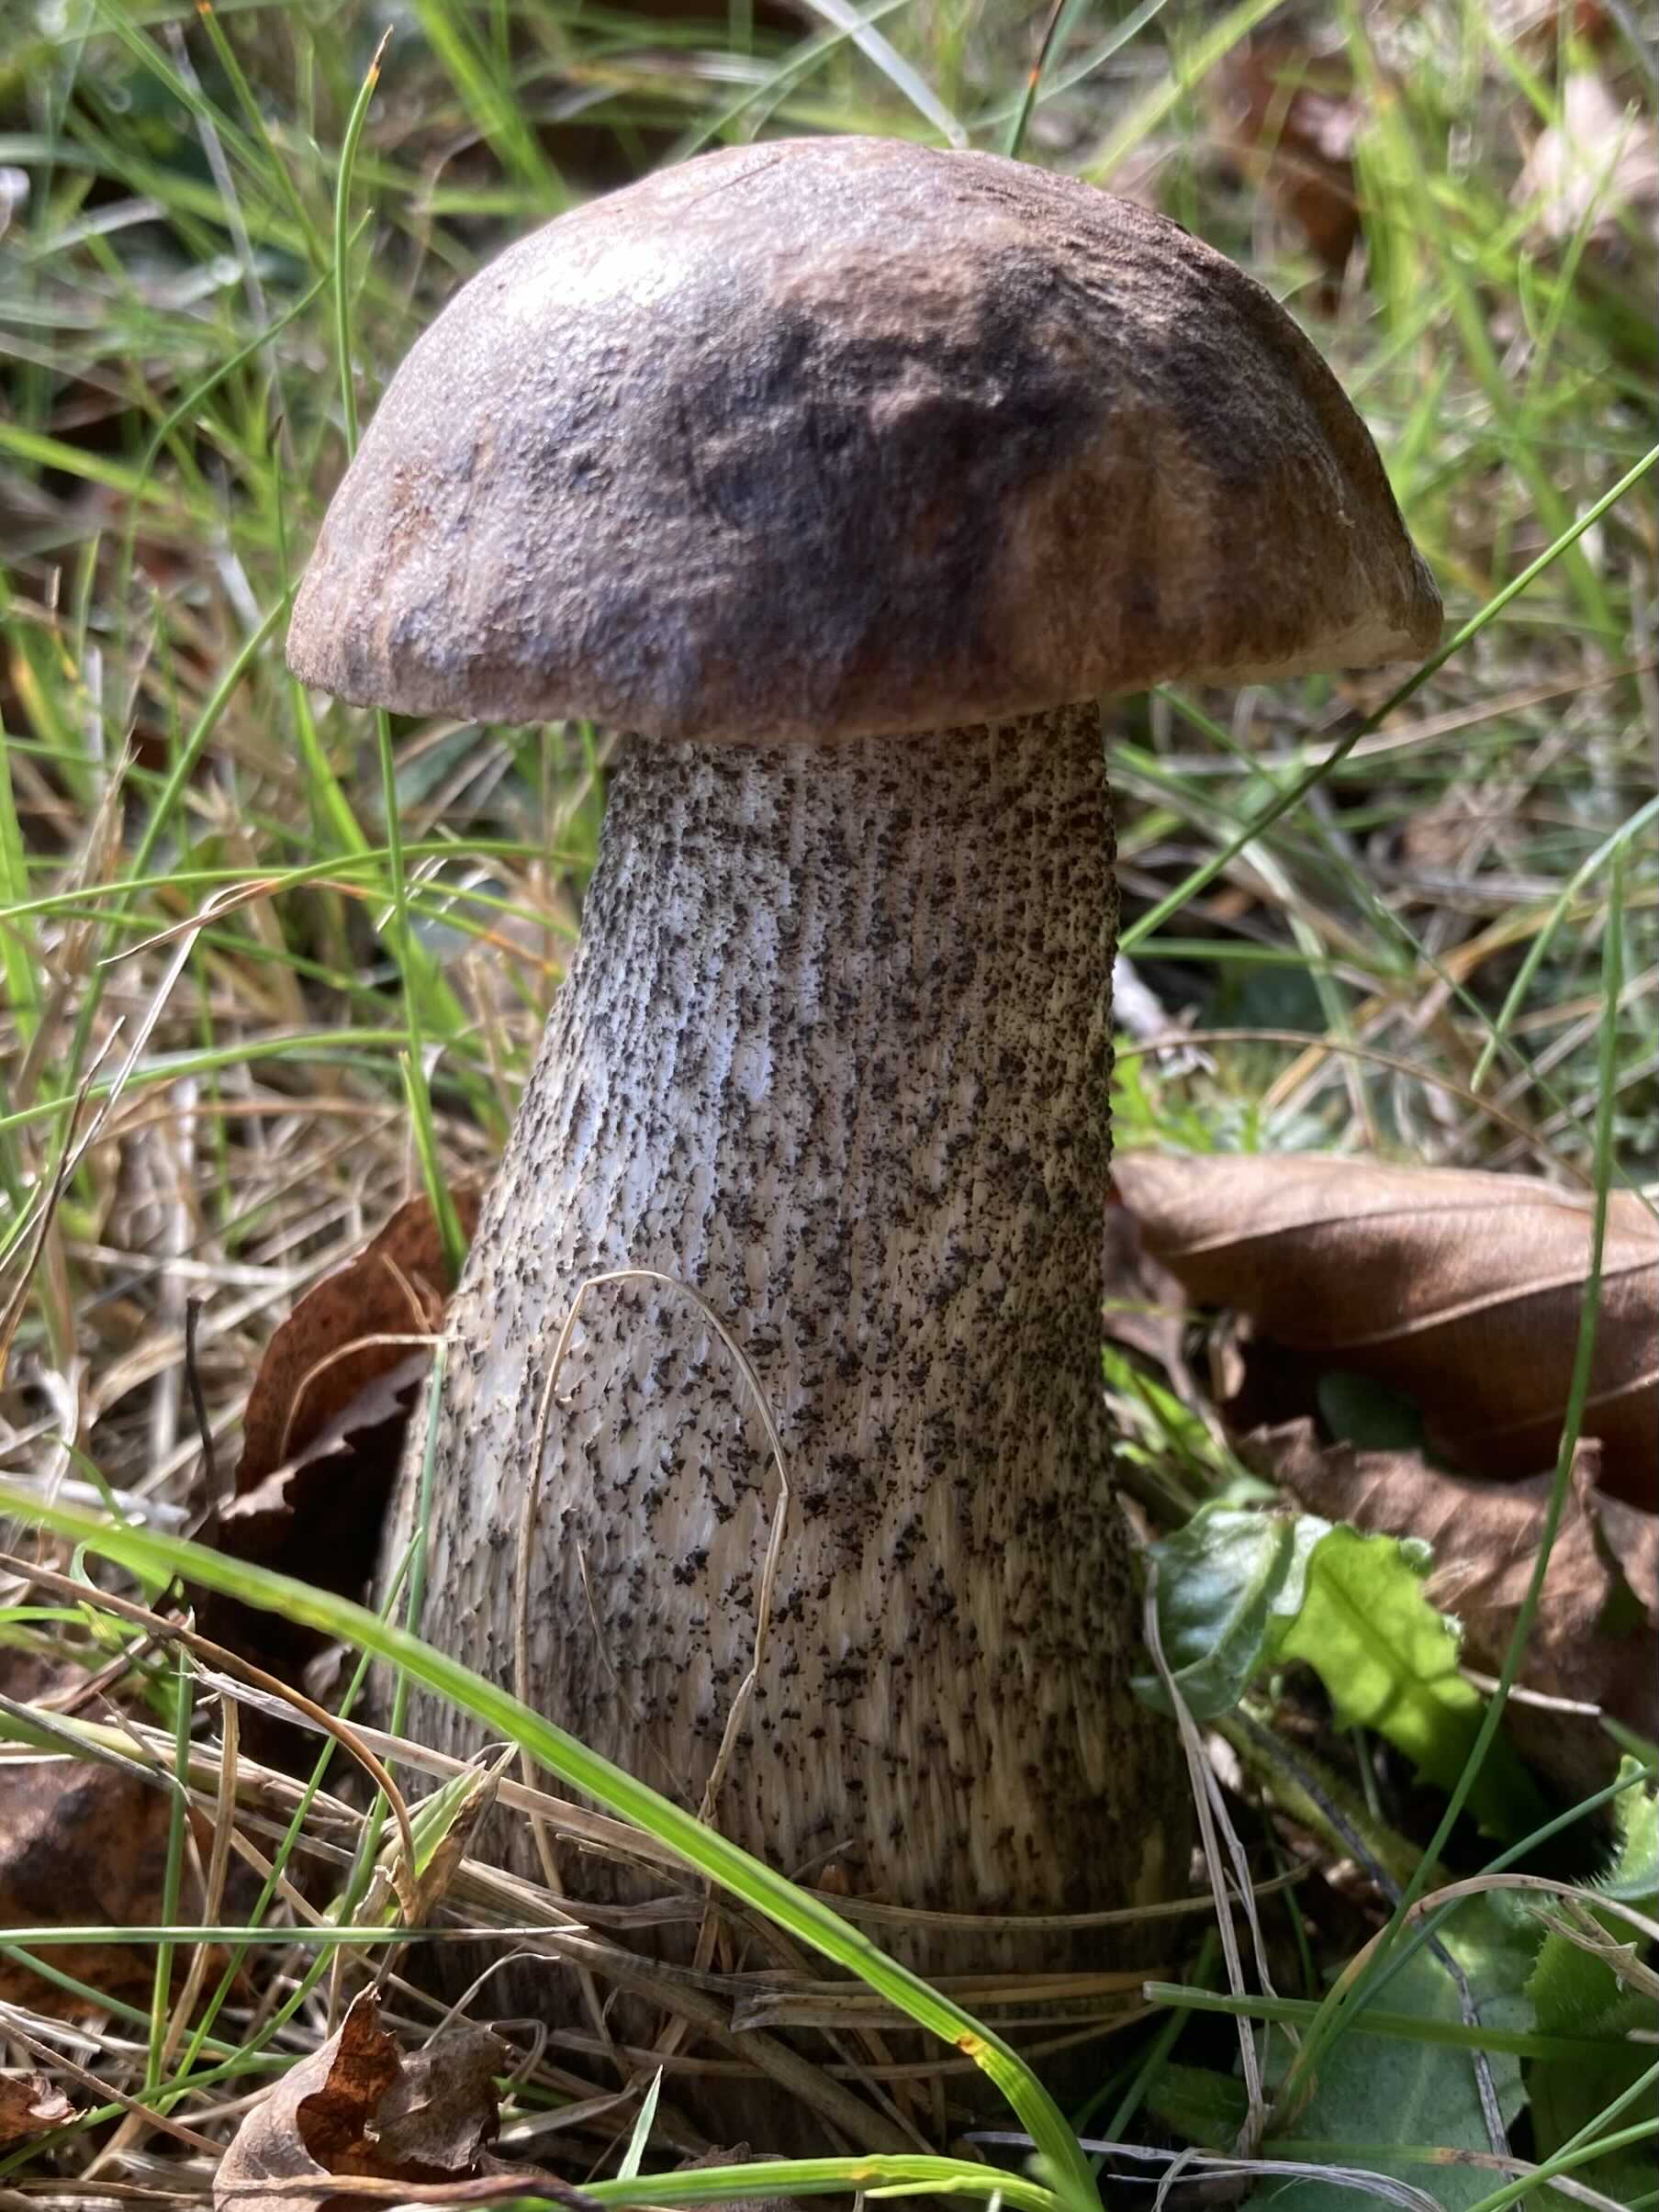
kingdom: Fungi
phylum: Basidiomycota
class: Agaricomycetes
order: Boletales
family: Boletaceae
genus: Leccinum
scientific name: Leccinum
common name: skælrørhat
